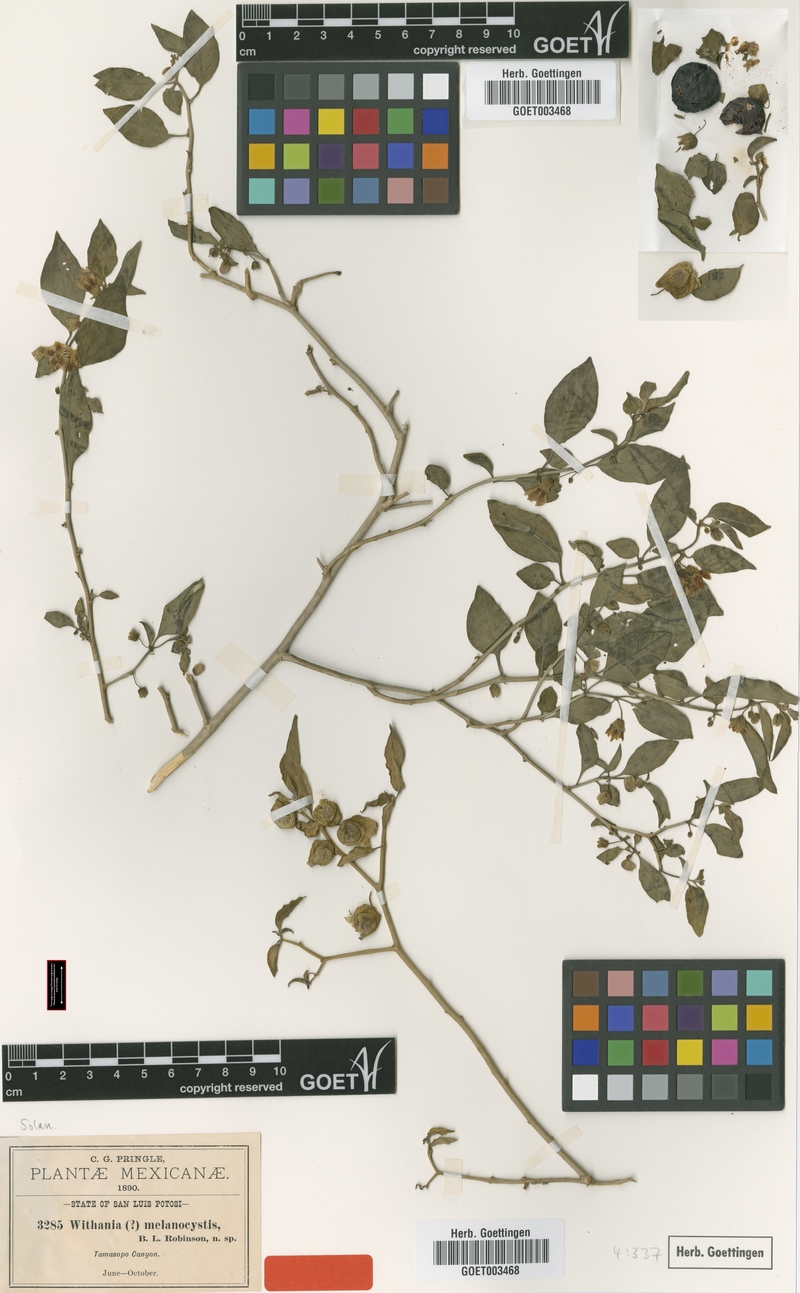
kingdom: Plantae
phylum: Tracheophyta
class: Magnoliopsida
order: Solanales
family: Solanaceae
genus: Physalis
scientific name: Physalis melanocystis
